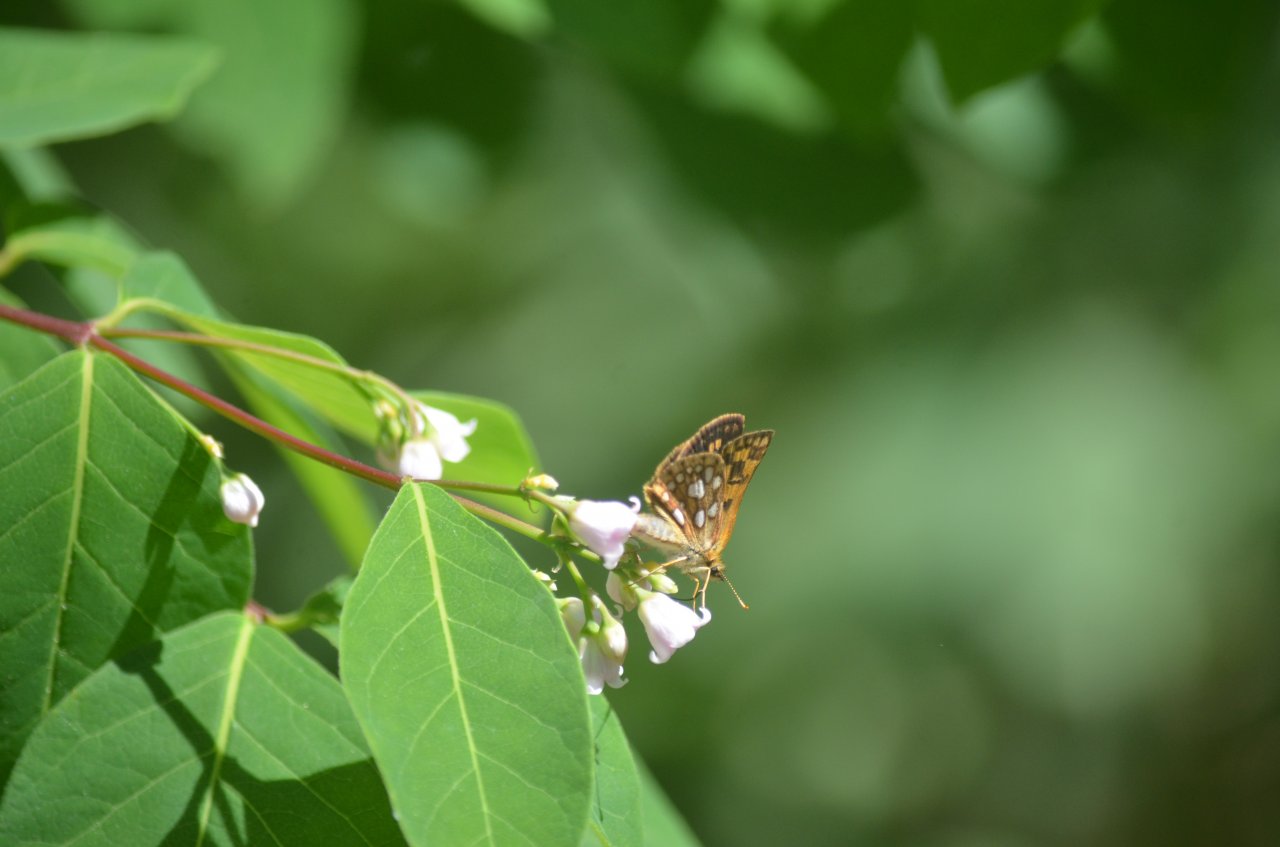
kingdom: Animalia
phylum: Arthropoda
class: Insecta
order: Lepidoptera
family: Hesperiidae
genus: Carterocephalus
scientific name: Carterocephalus palaemon
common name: Chequered Skipper
